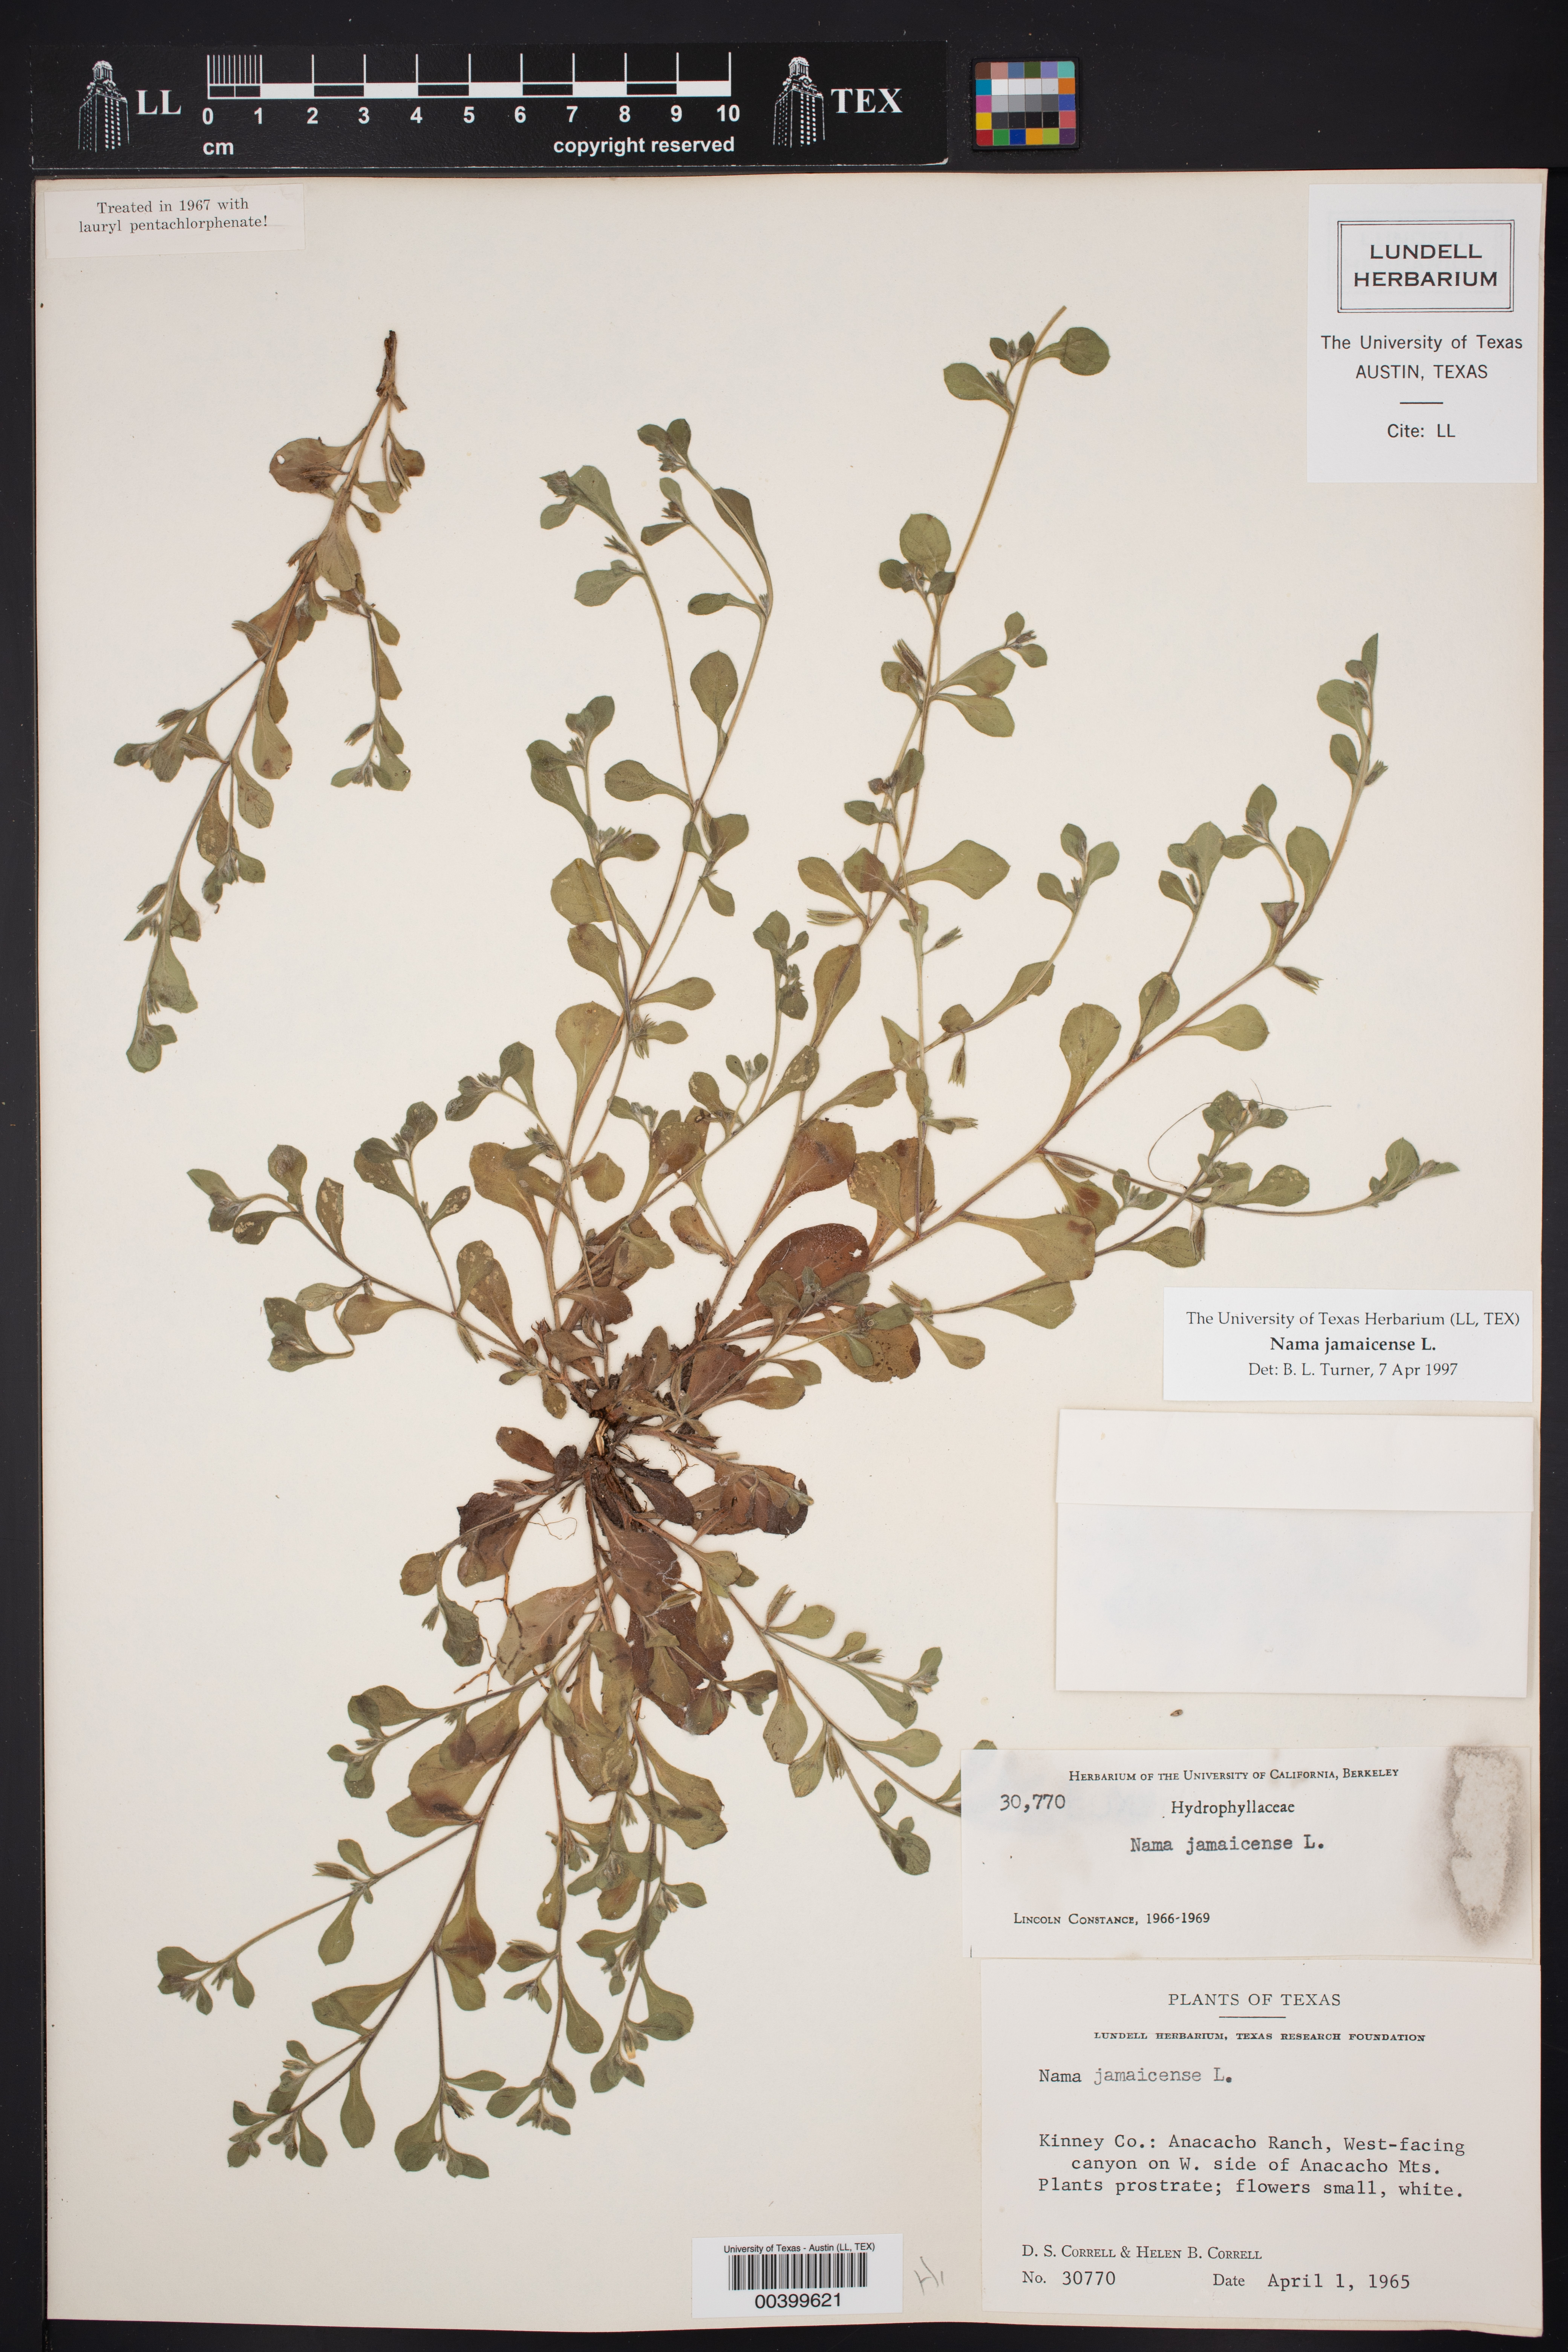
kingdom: Plantae
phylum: Tracheophyta
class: Magnoliopsida
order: Boraginales
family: Namaceae
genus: Nama
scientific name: Nama jamaicensis
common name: Jamaicanweed
